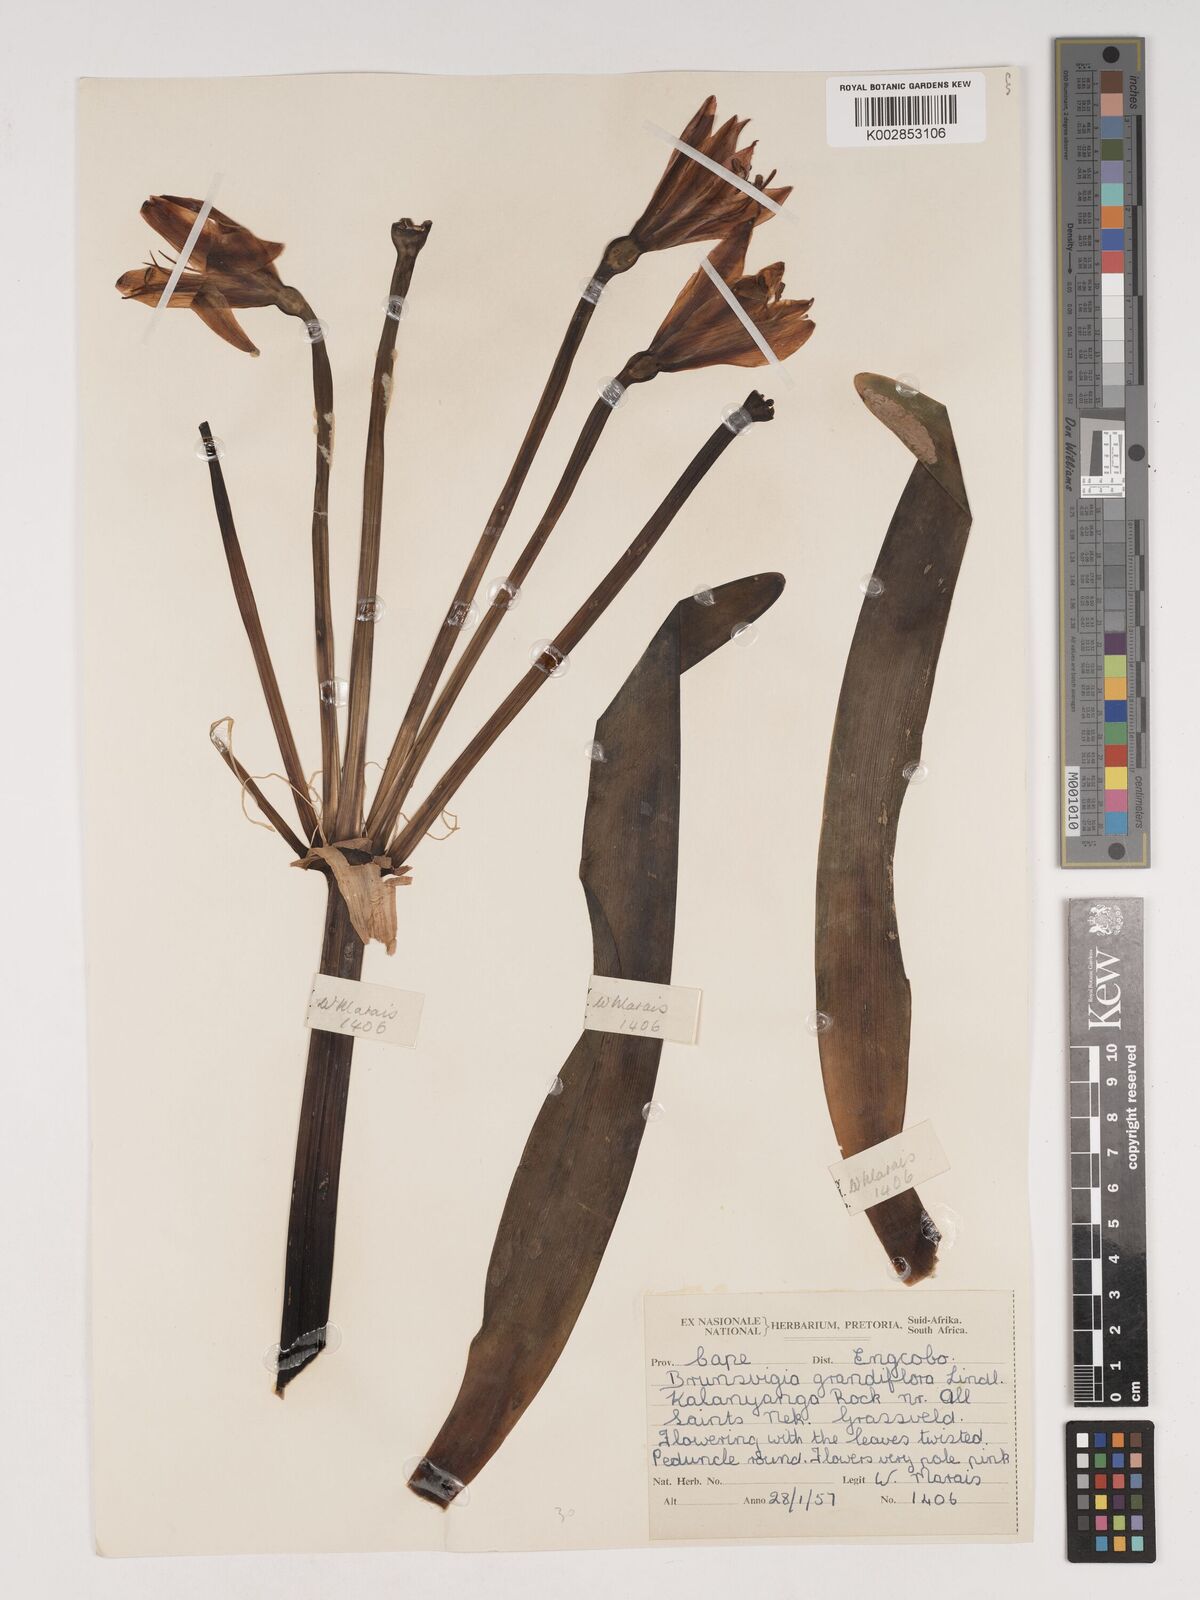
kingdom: Plantae
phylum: Tracheophyta
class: Liliopsida
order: Asparagales
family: Amaryllidaceae
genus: Brunsvigia
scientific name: Brunsvigia grandiflora
